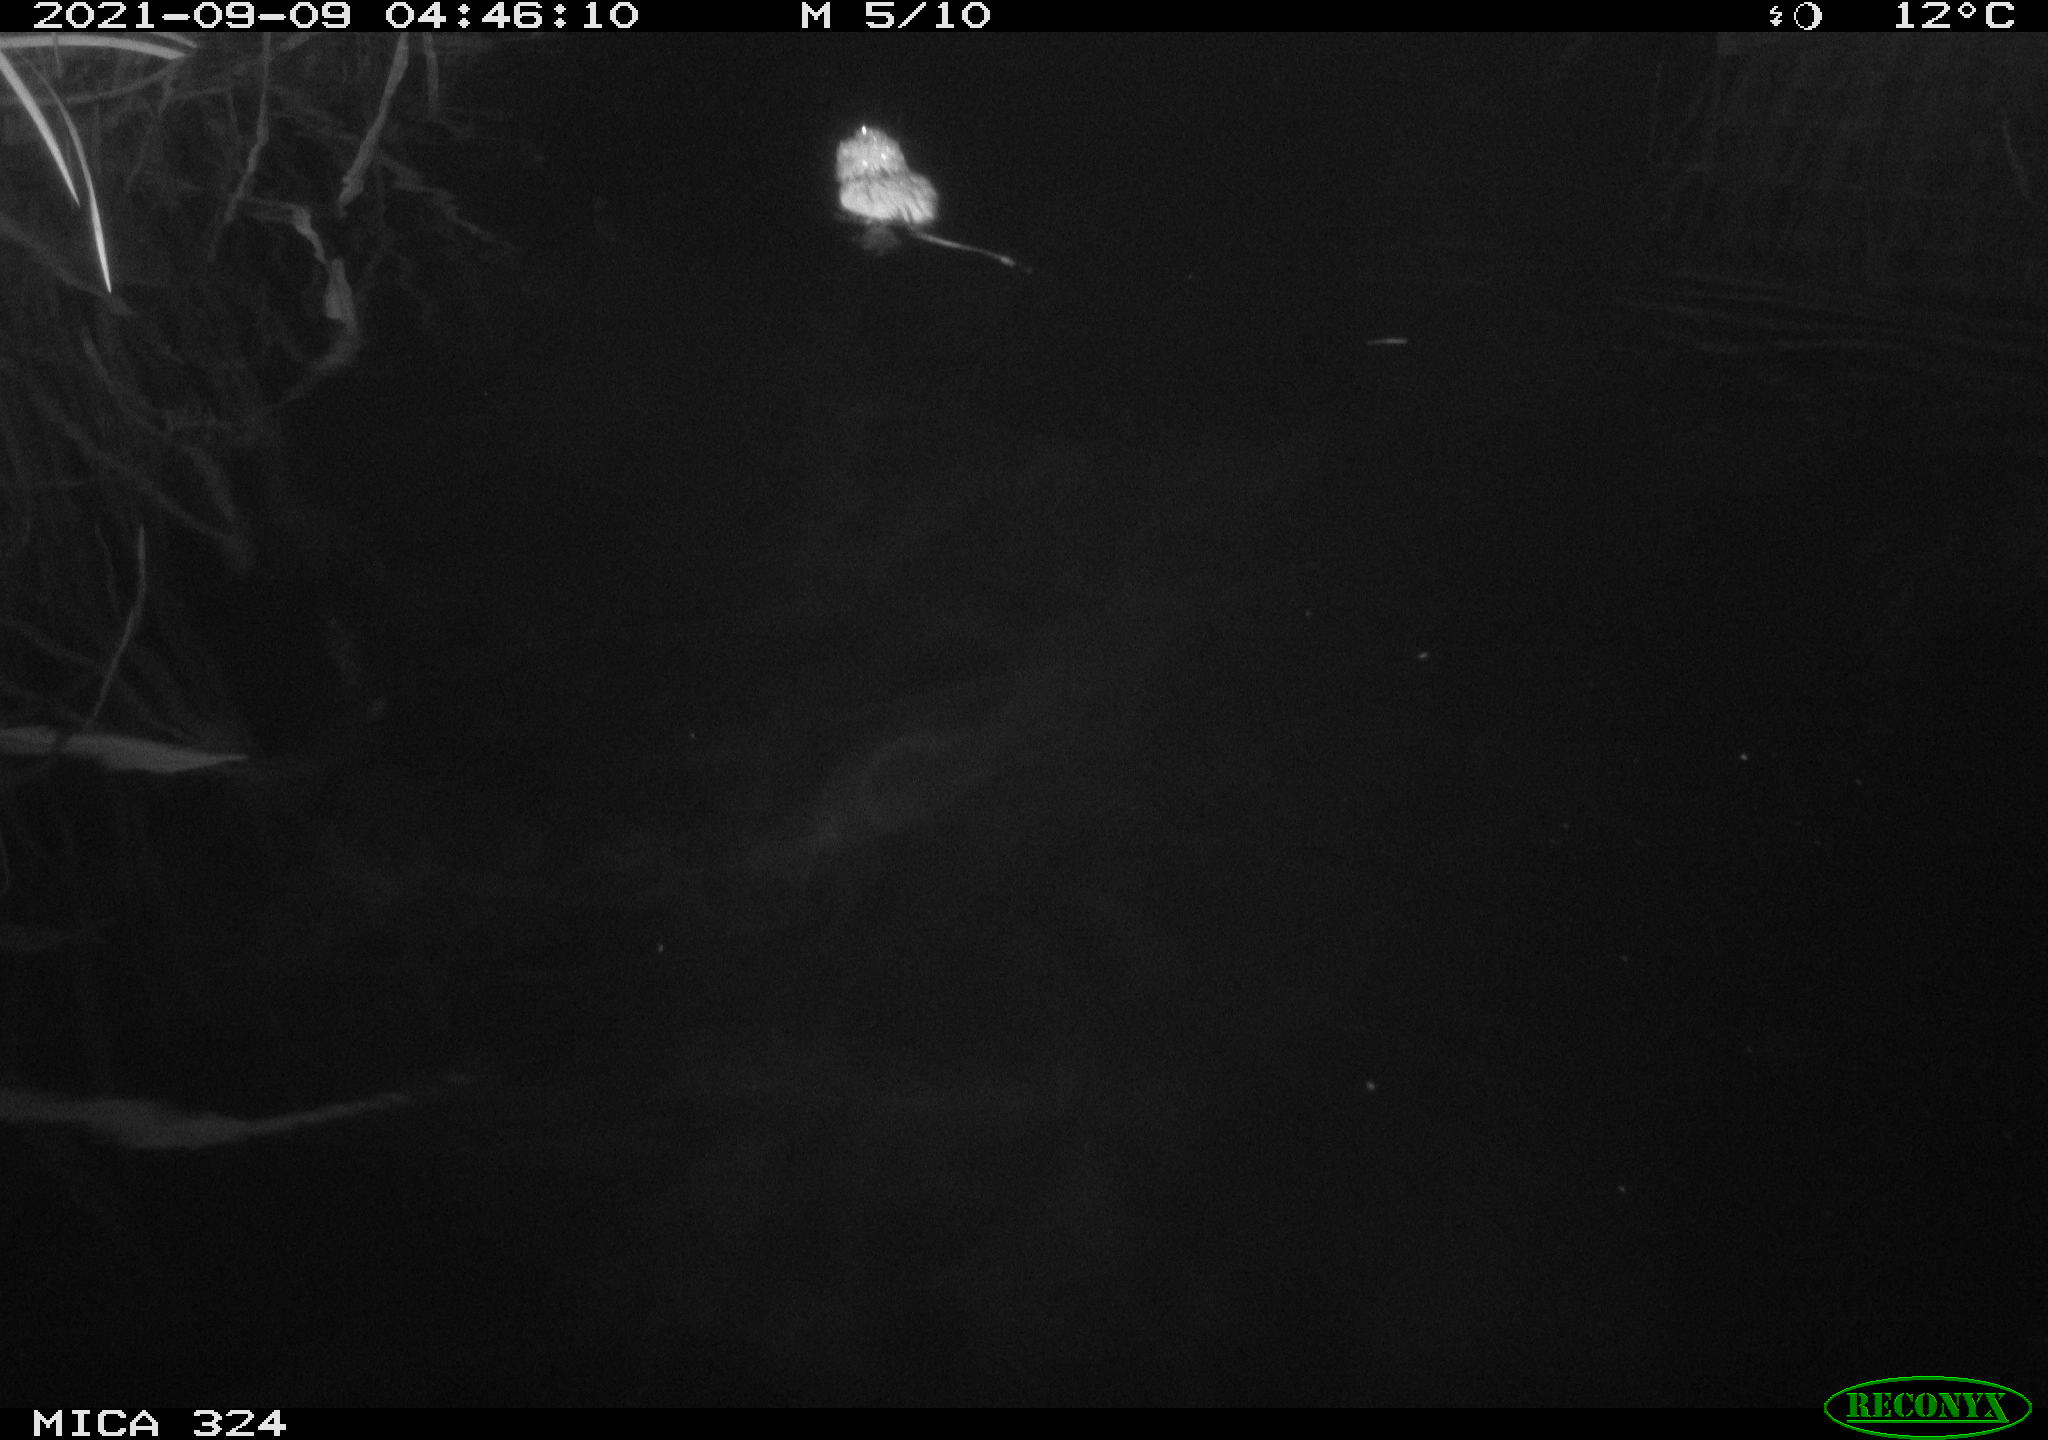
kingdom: Animalia
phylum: Chordata
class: Mammalia
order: Rodentia
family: Cricetidae
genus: Ondatra
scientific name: Ondatra zibethicus
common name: Muskrat
